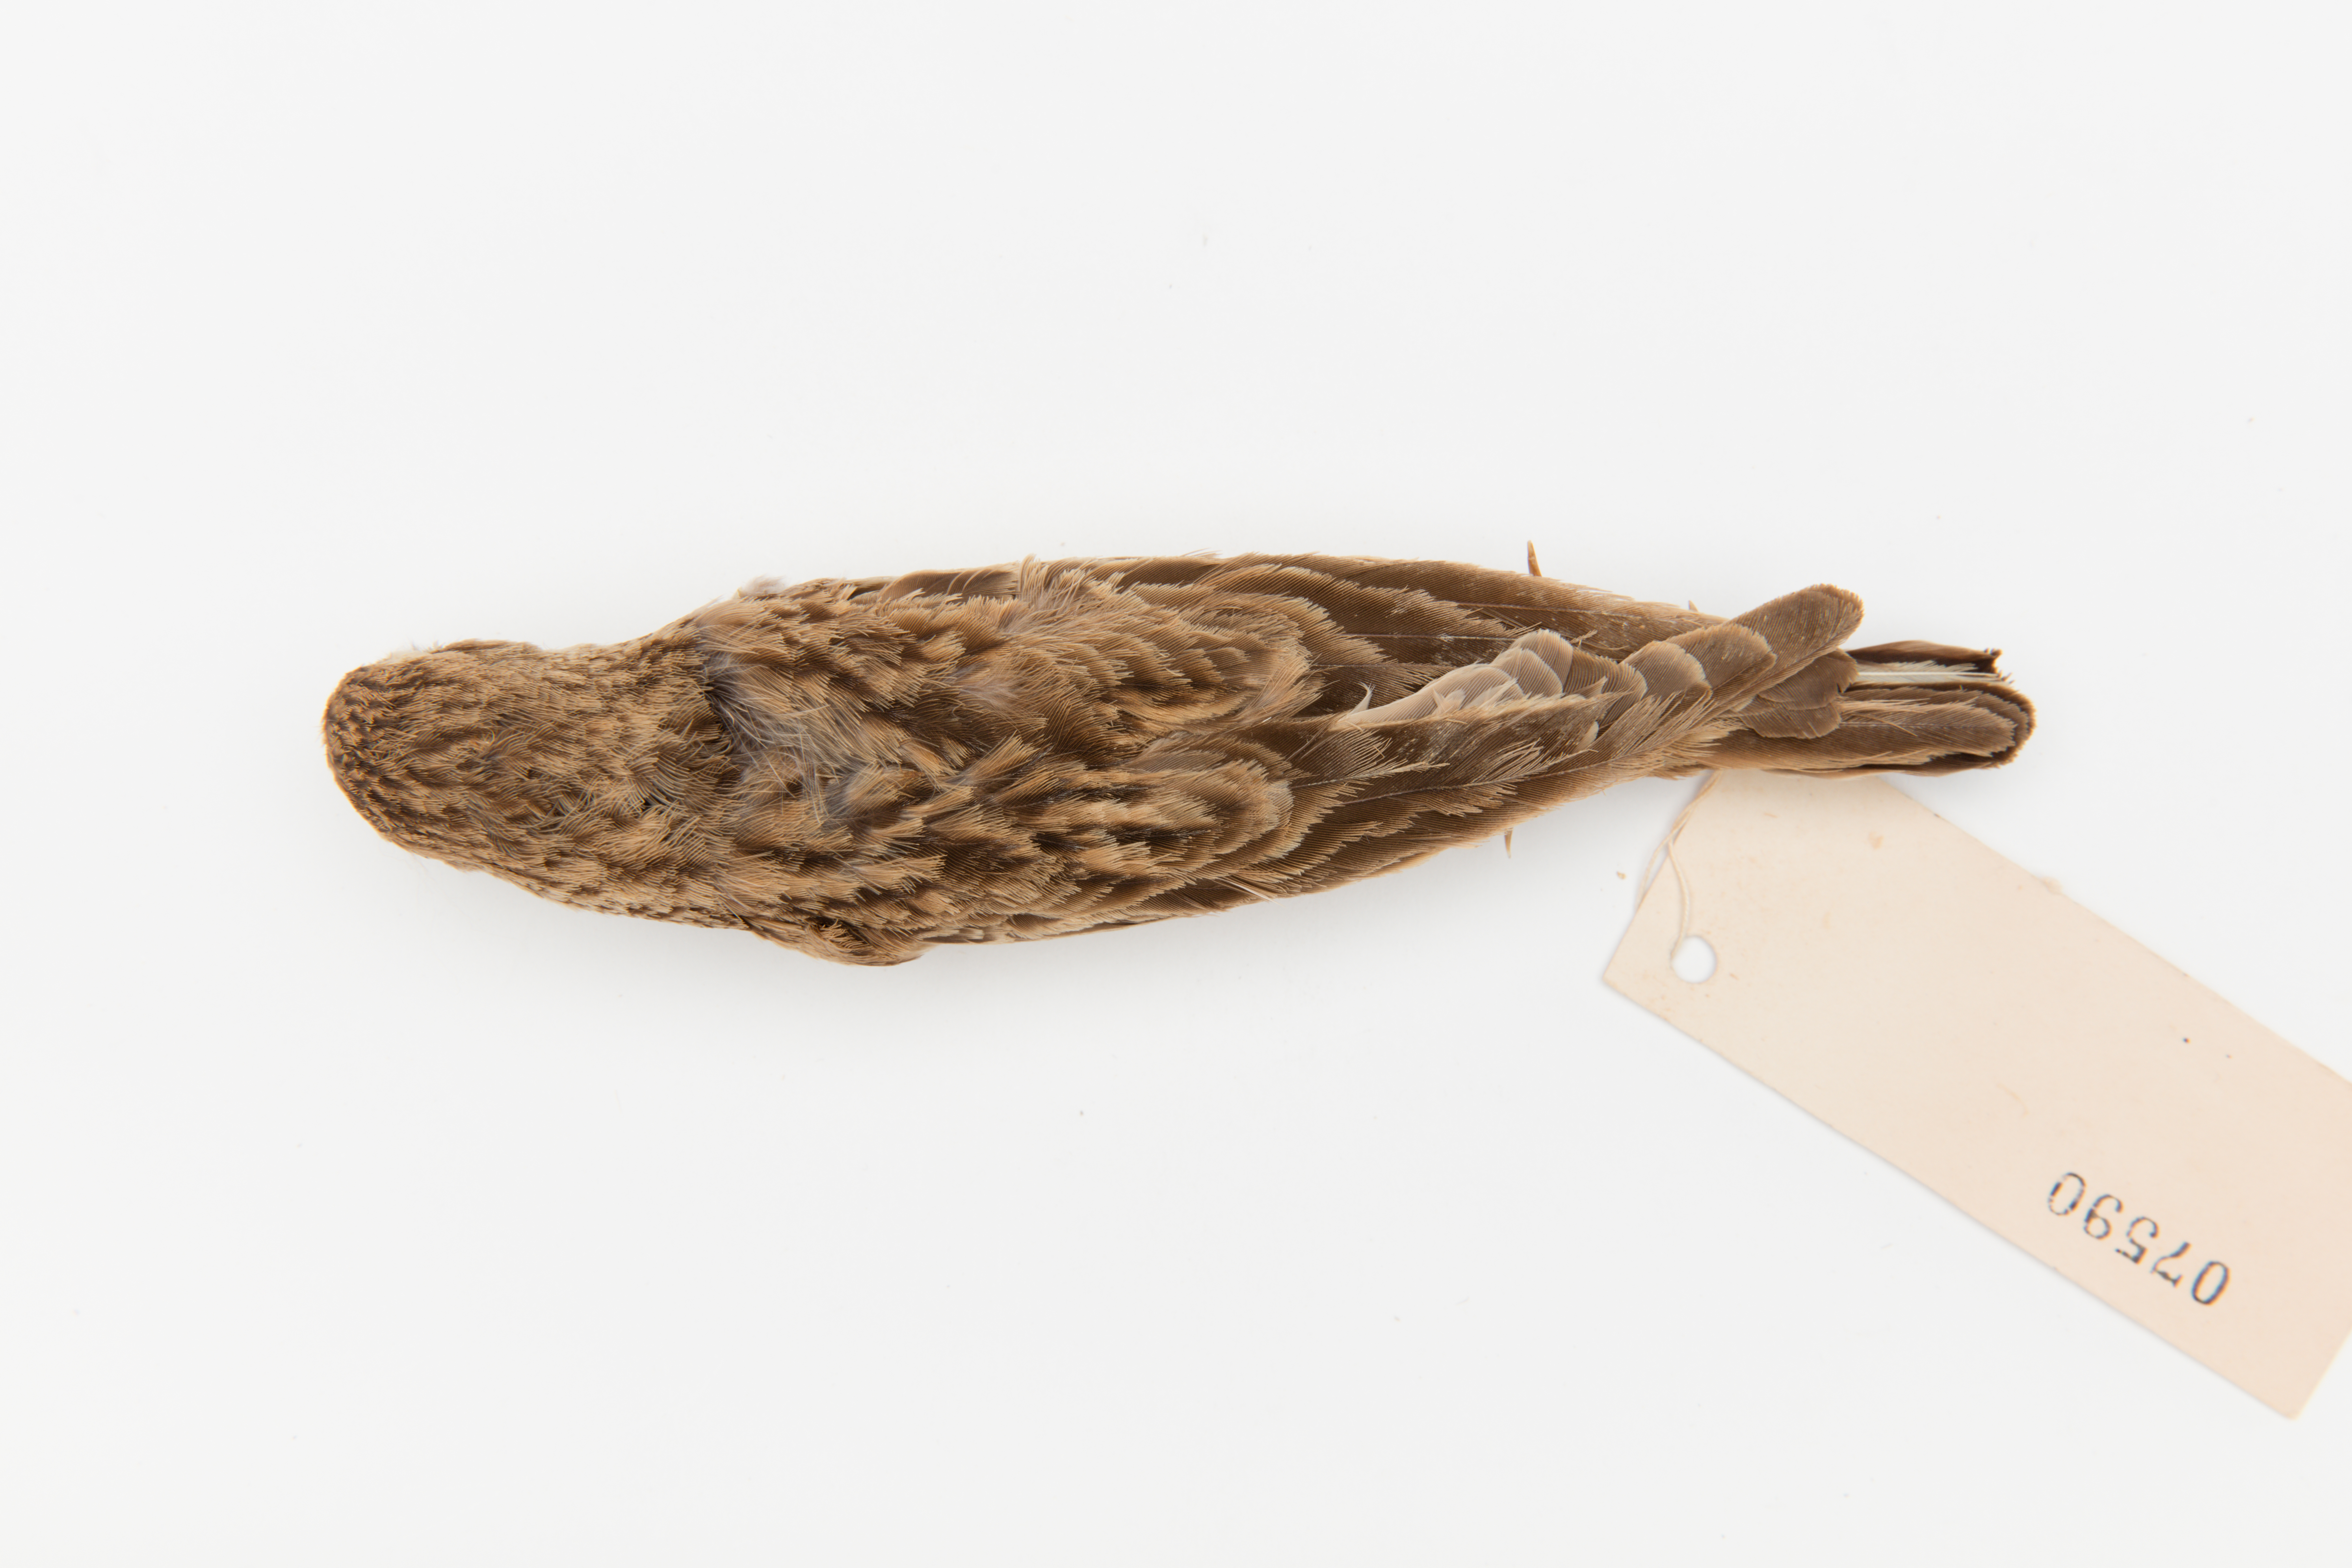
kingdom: Animalia
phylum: Chordata
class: Aves
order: Passeriformes
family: Alaudidae
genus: Calandrella
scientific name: Calandrella cinerea
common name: Red-capped lark
